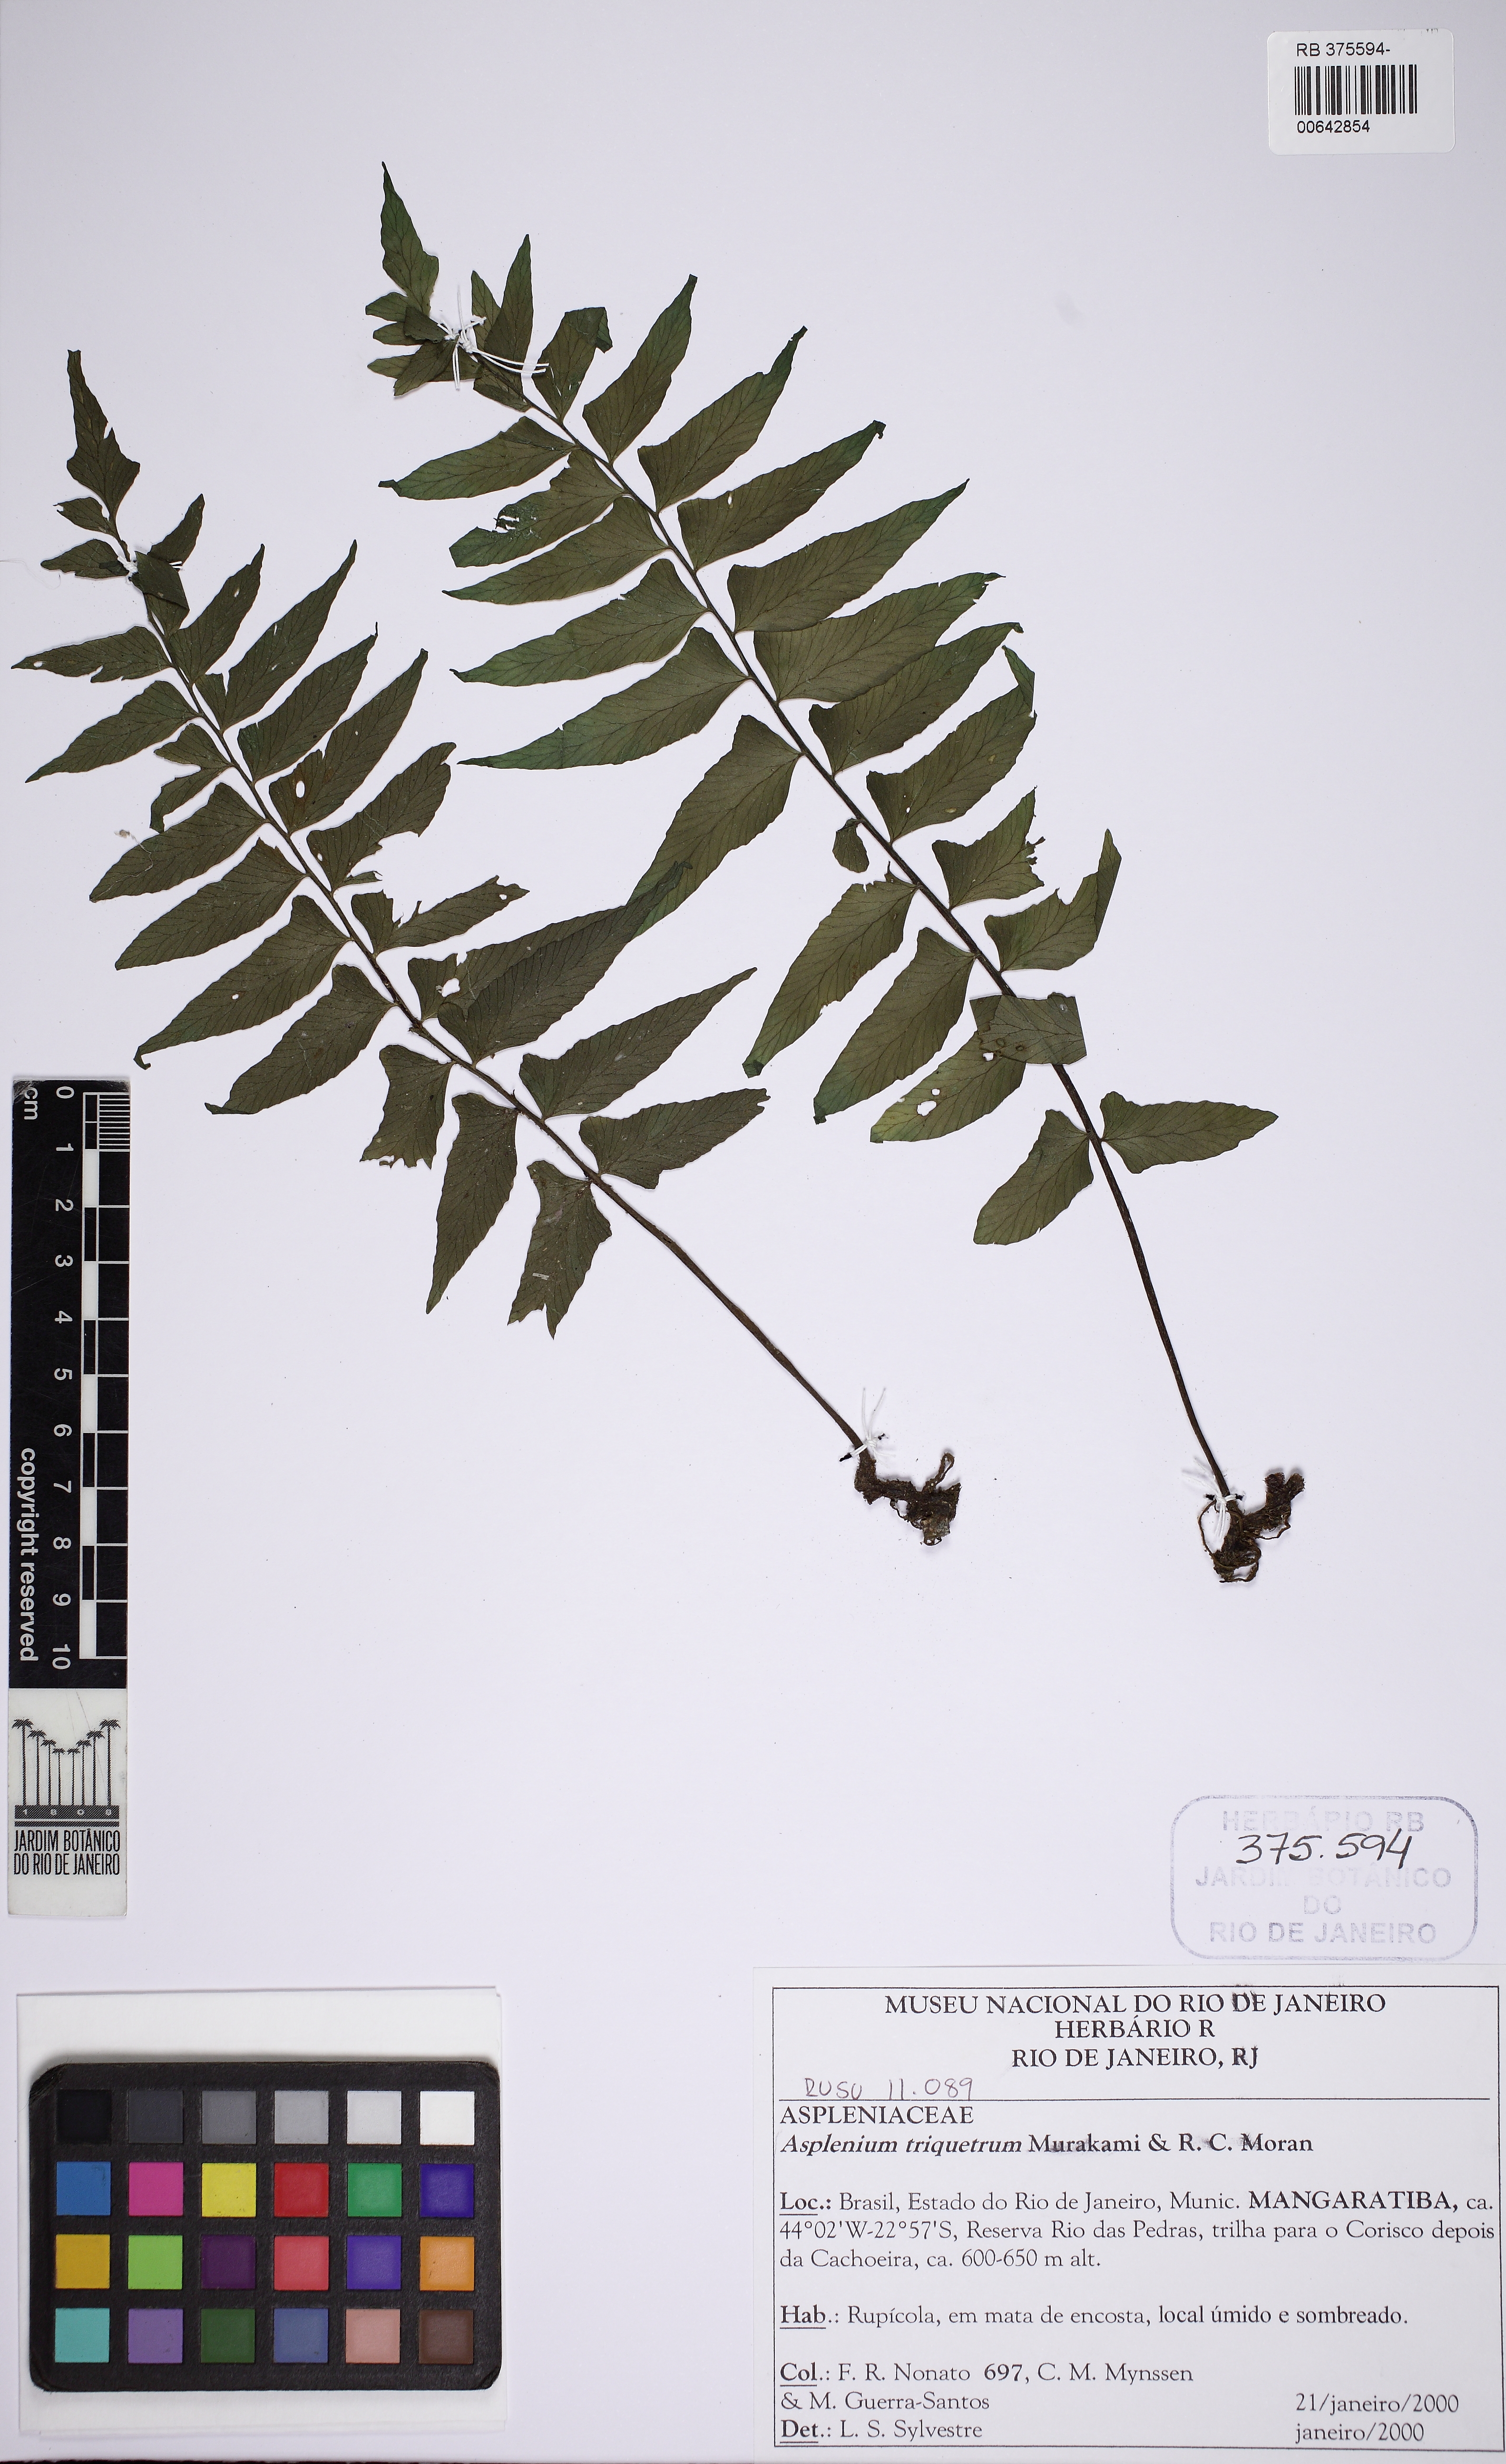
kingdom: Plantae
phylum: Tracheophyta
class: Polypodiopsida
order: Polypodiales
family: Aspleniaceae
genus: Hymenasplenium
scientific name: Hymenasplenium triquetrum
